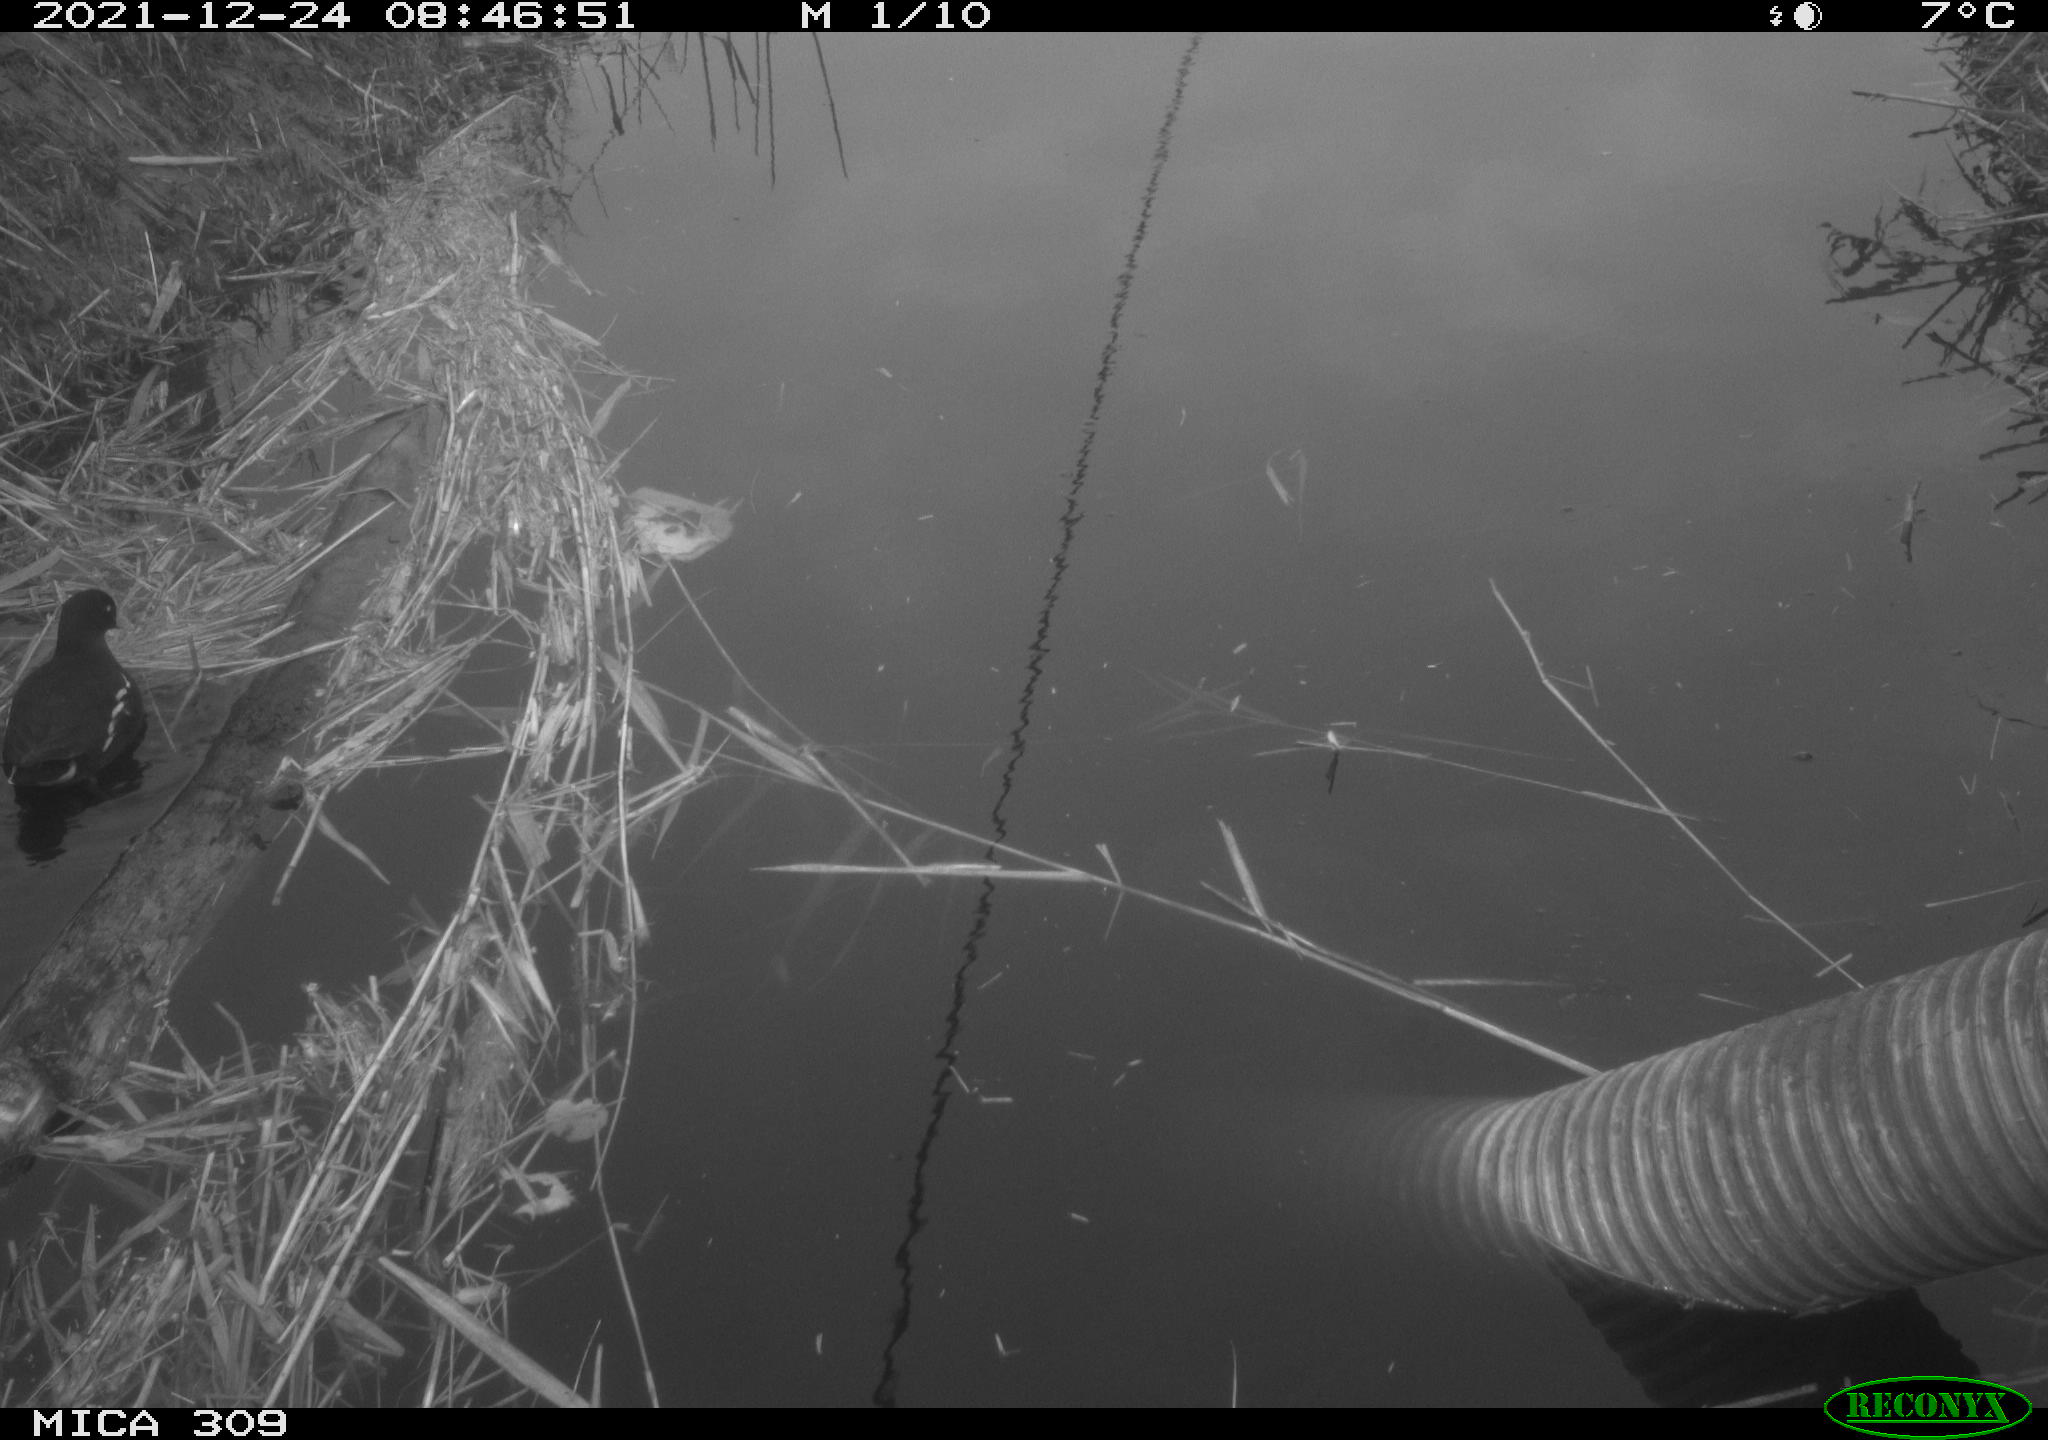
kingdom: Animalia
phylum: Chordata
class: Aves
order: Gruiformes
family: Rallidae
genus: Gallinula
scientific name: Gallinula chloropus
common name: Common moorhen
